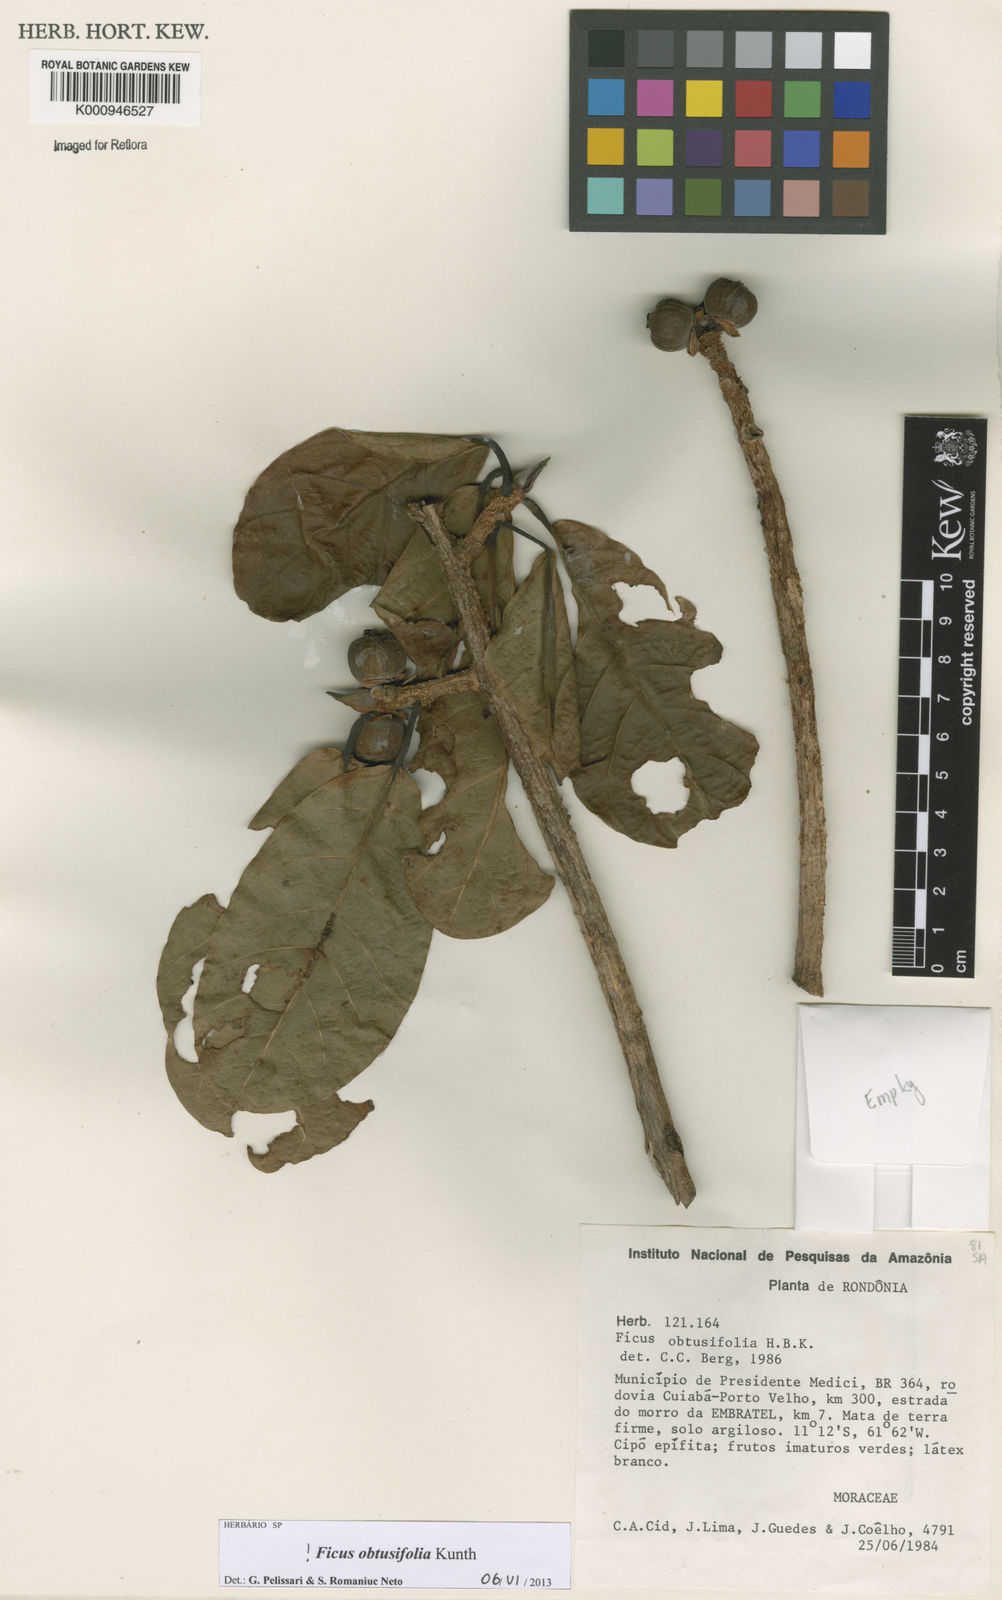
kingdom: Plantae
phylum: Tracheophyta
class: Magnoliopsida
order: Rosales
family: Moraceae
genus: Ficus
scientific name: Ficus obtusifolia
